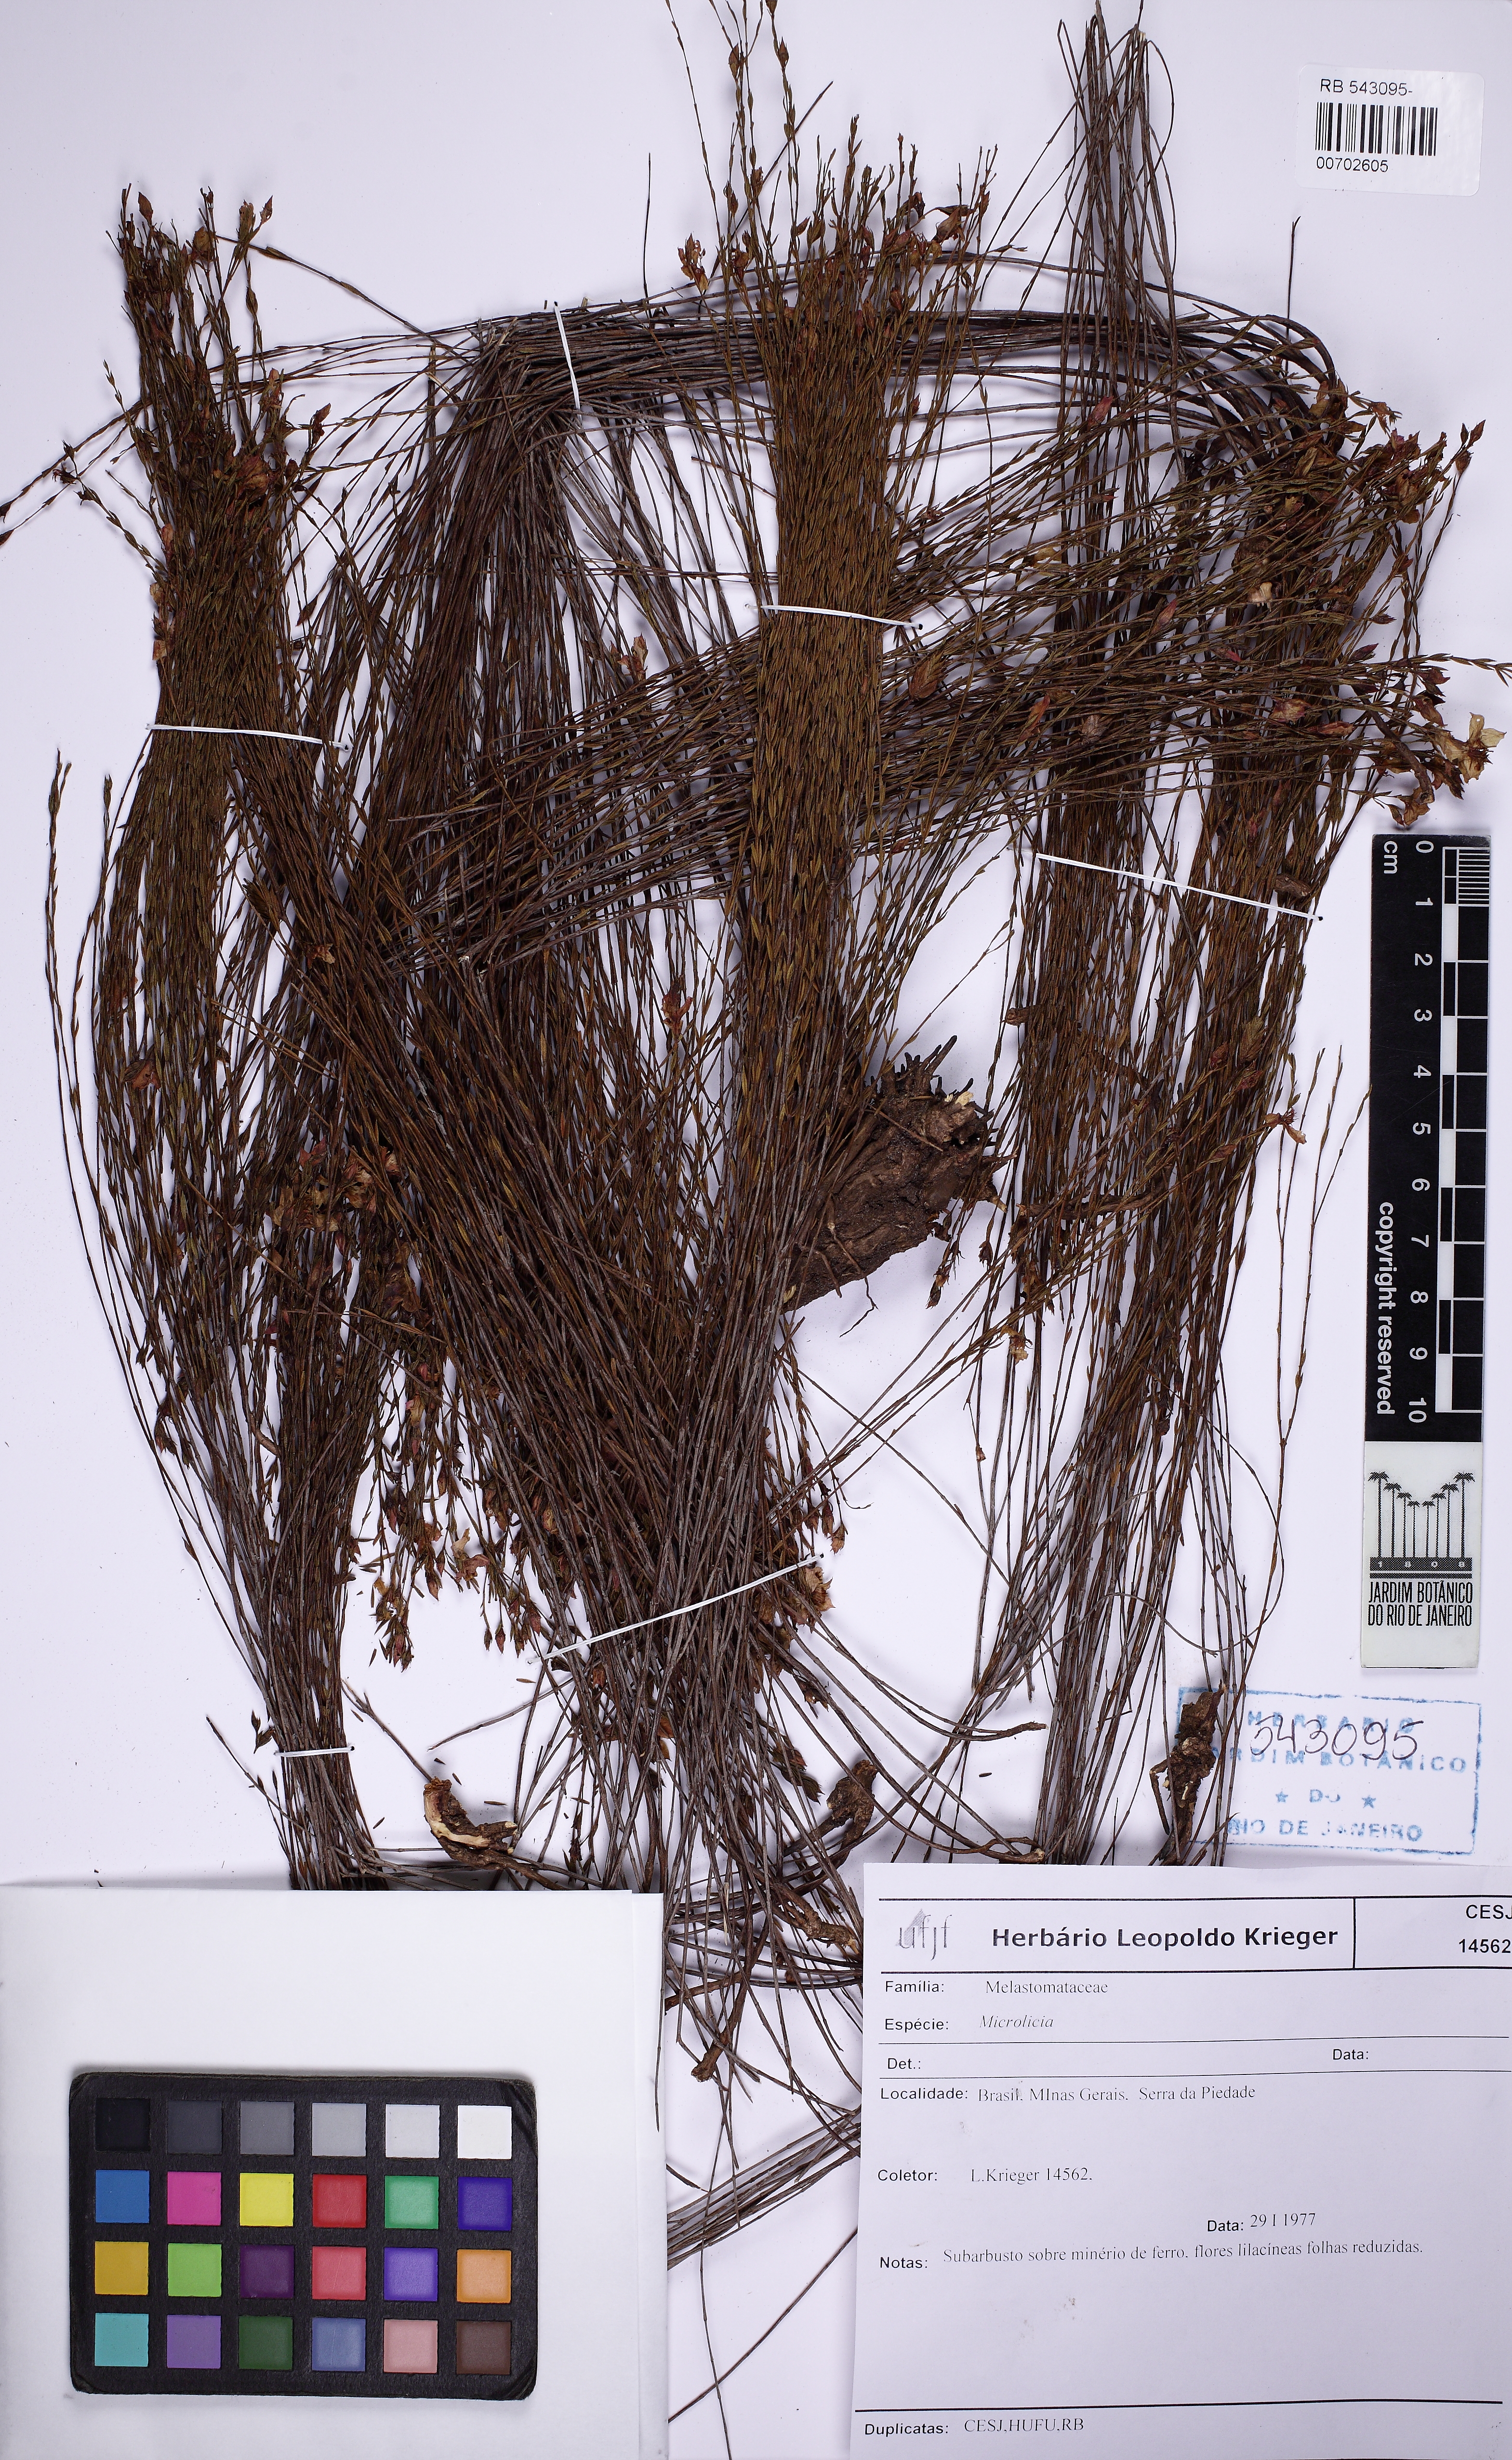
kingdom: Plantae
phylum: Tracheophyta
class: Magnoliopsida
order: Myrtales
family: Melastomataceae
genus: Microlicia
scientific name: Microlicia isophylla
